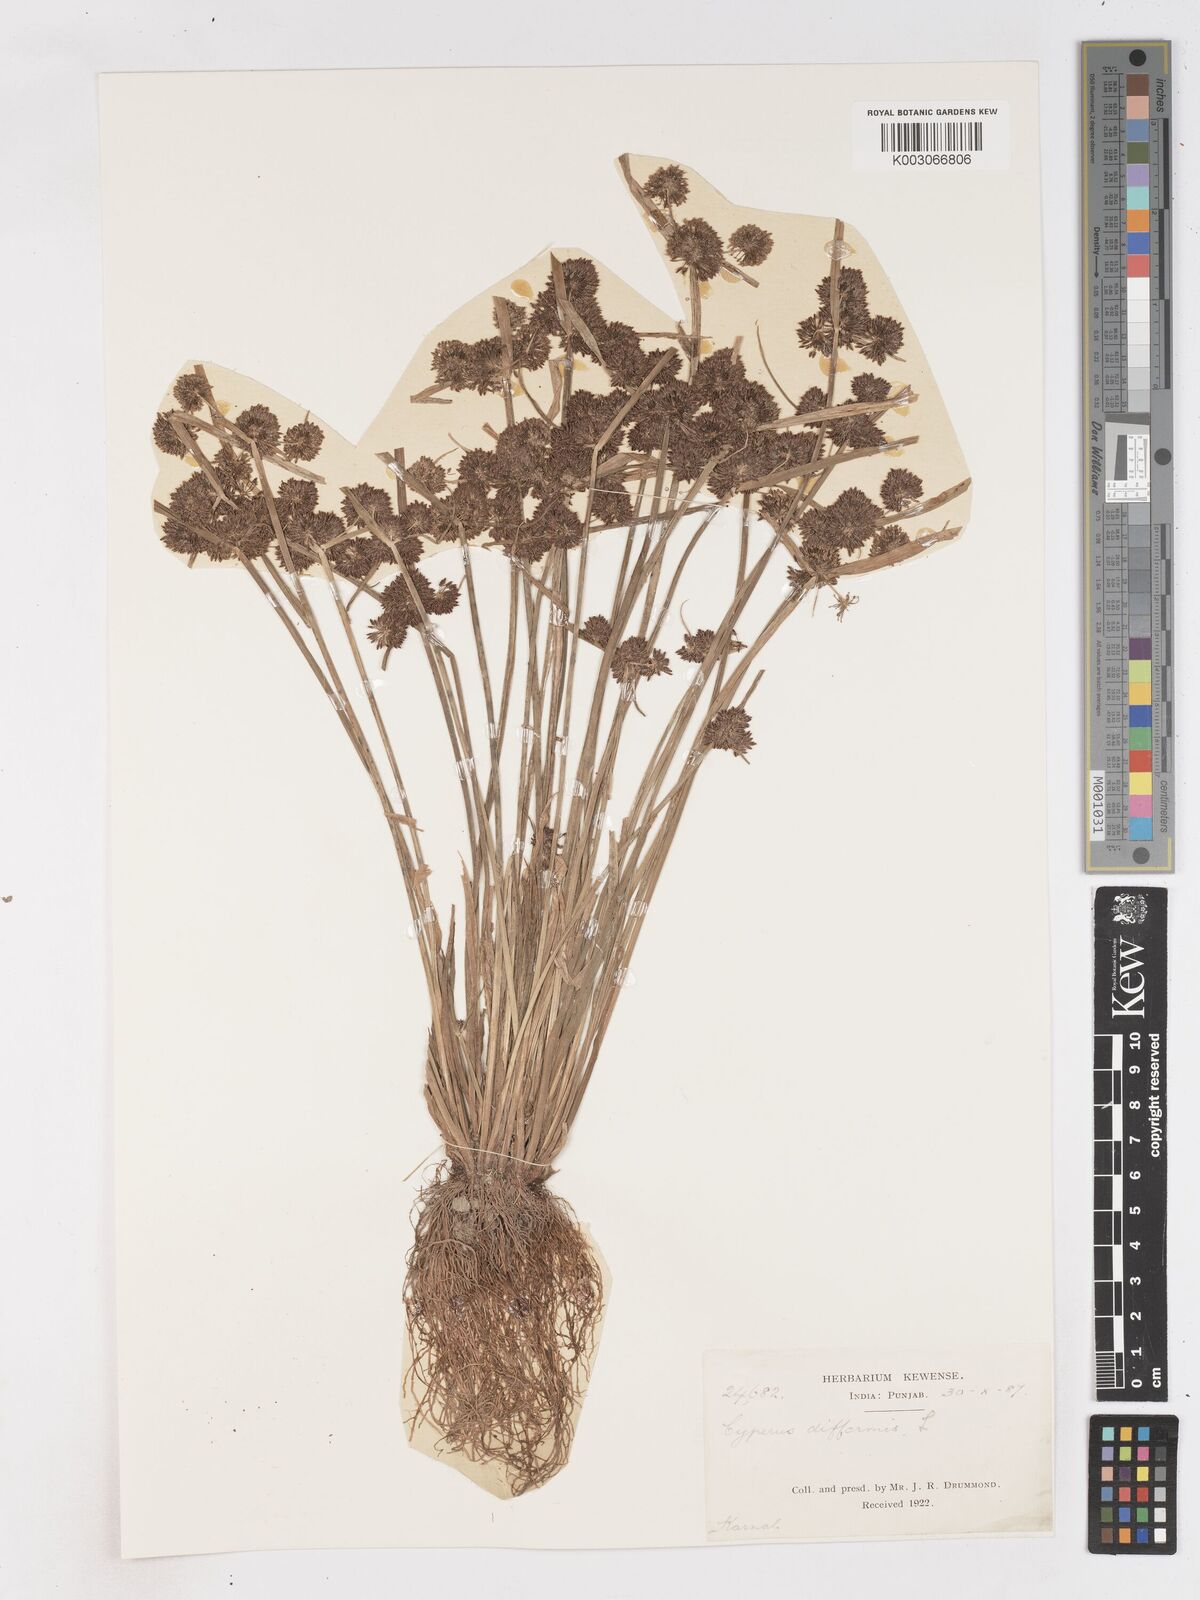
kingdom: Plantae
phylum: Tracheophyta
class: Liliopsida
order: Poales
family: Cyperaceae
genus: Cyperus
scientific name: Cyperus difformis
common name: Variable flatsedge
